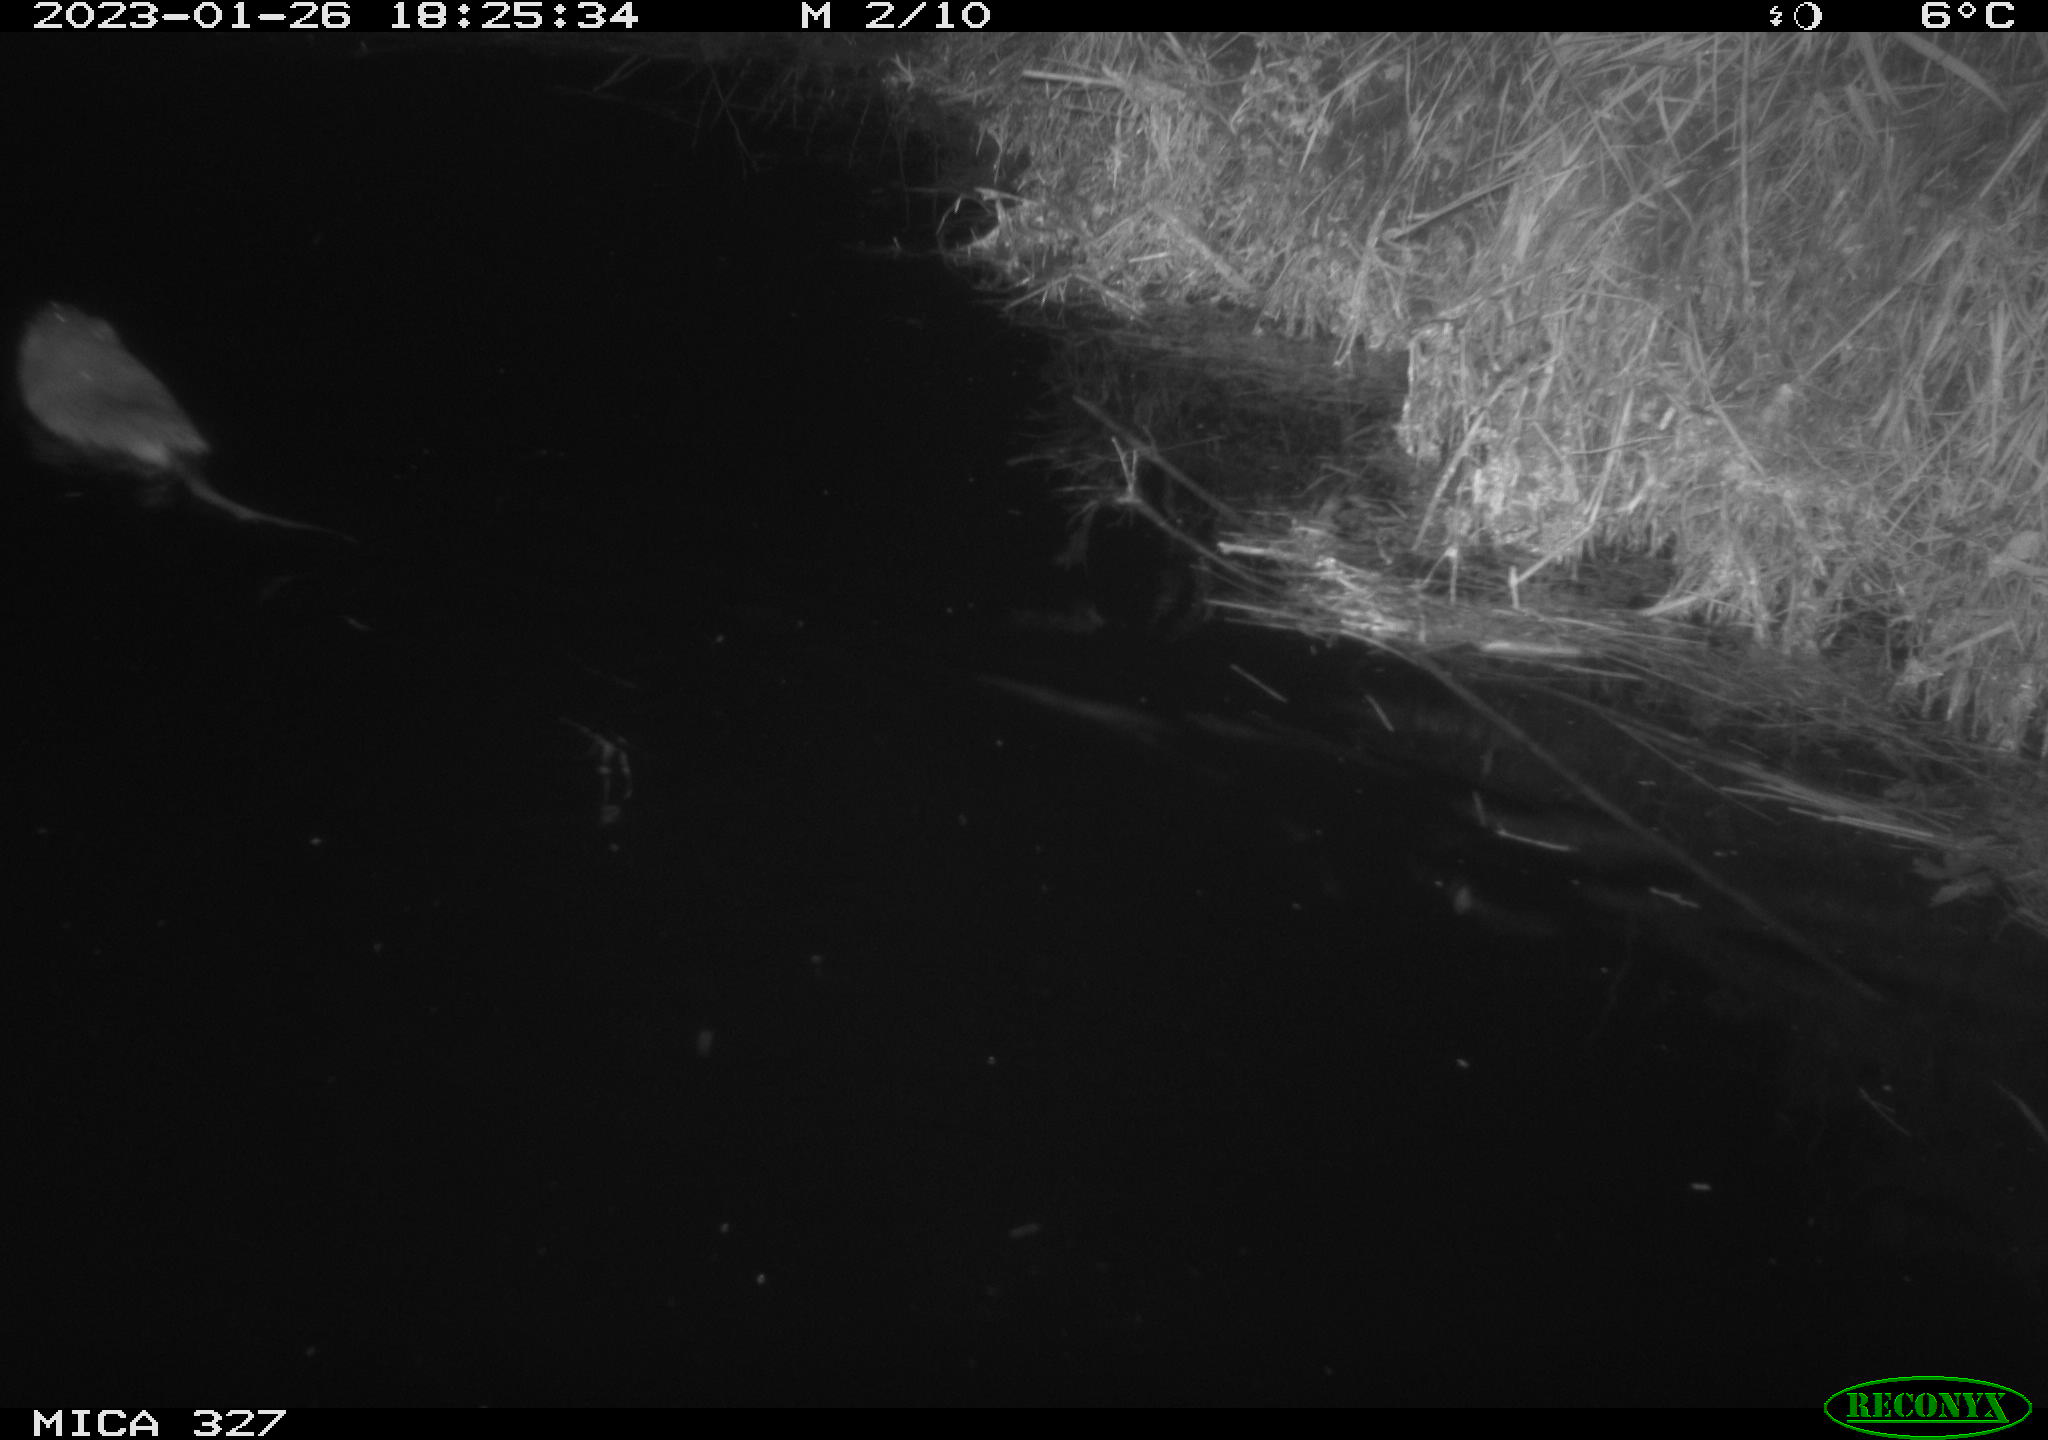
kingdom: Animalia
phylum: Chordata
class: Mammalia
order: Rodentia
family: Cricetidae
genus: Ondatra
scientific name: Ondatra zibethicus
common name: Muskrat
